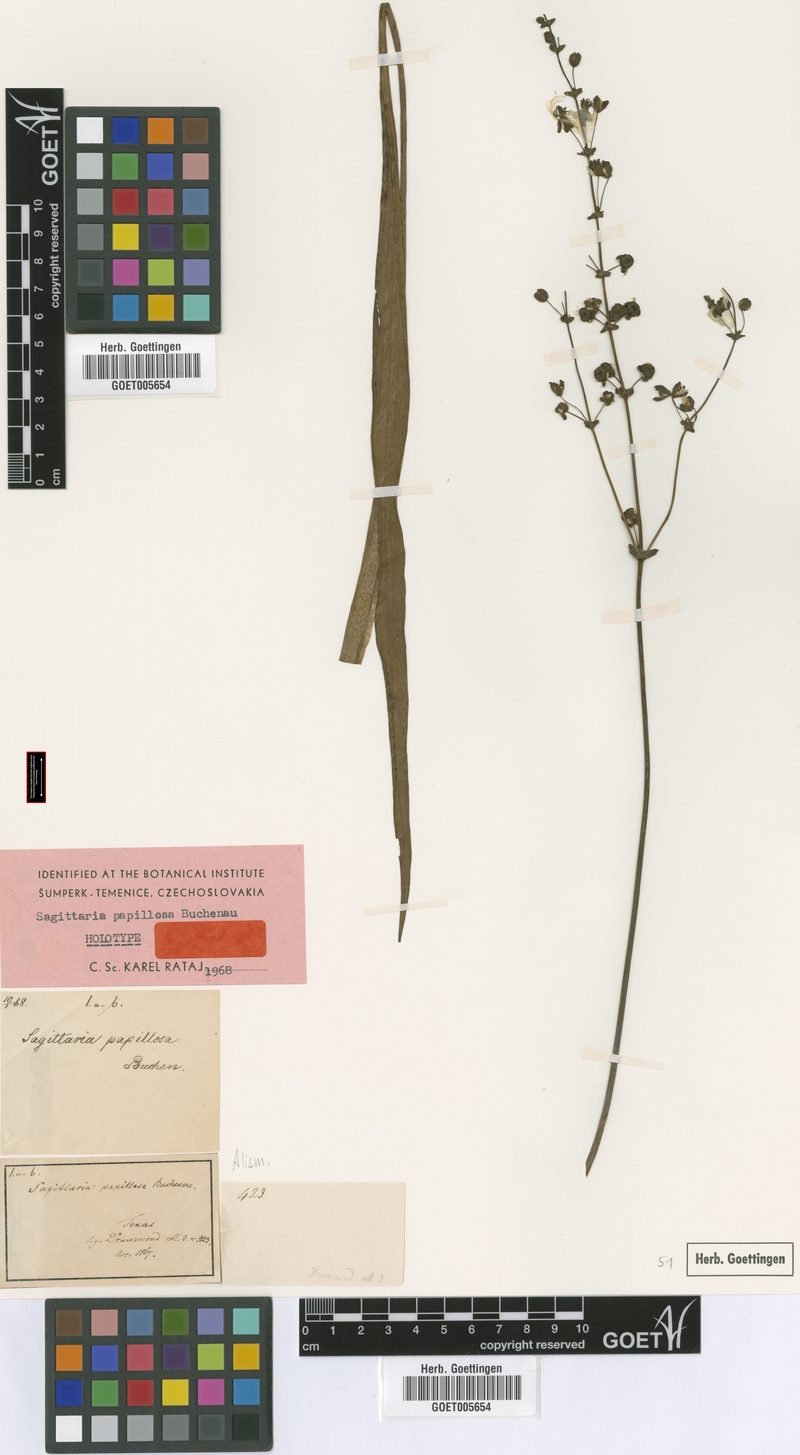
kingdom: Plantae
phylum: Tracheophyta
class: Liliopsida
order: Alismatales
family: Alismataceae
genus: Sagittaria
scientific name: Sagittaria papillosa
